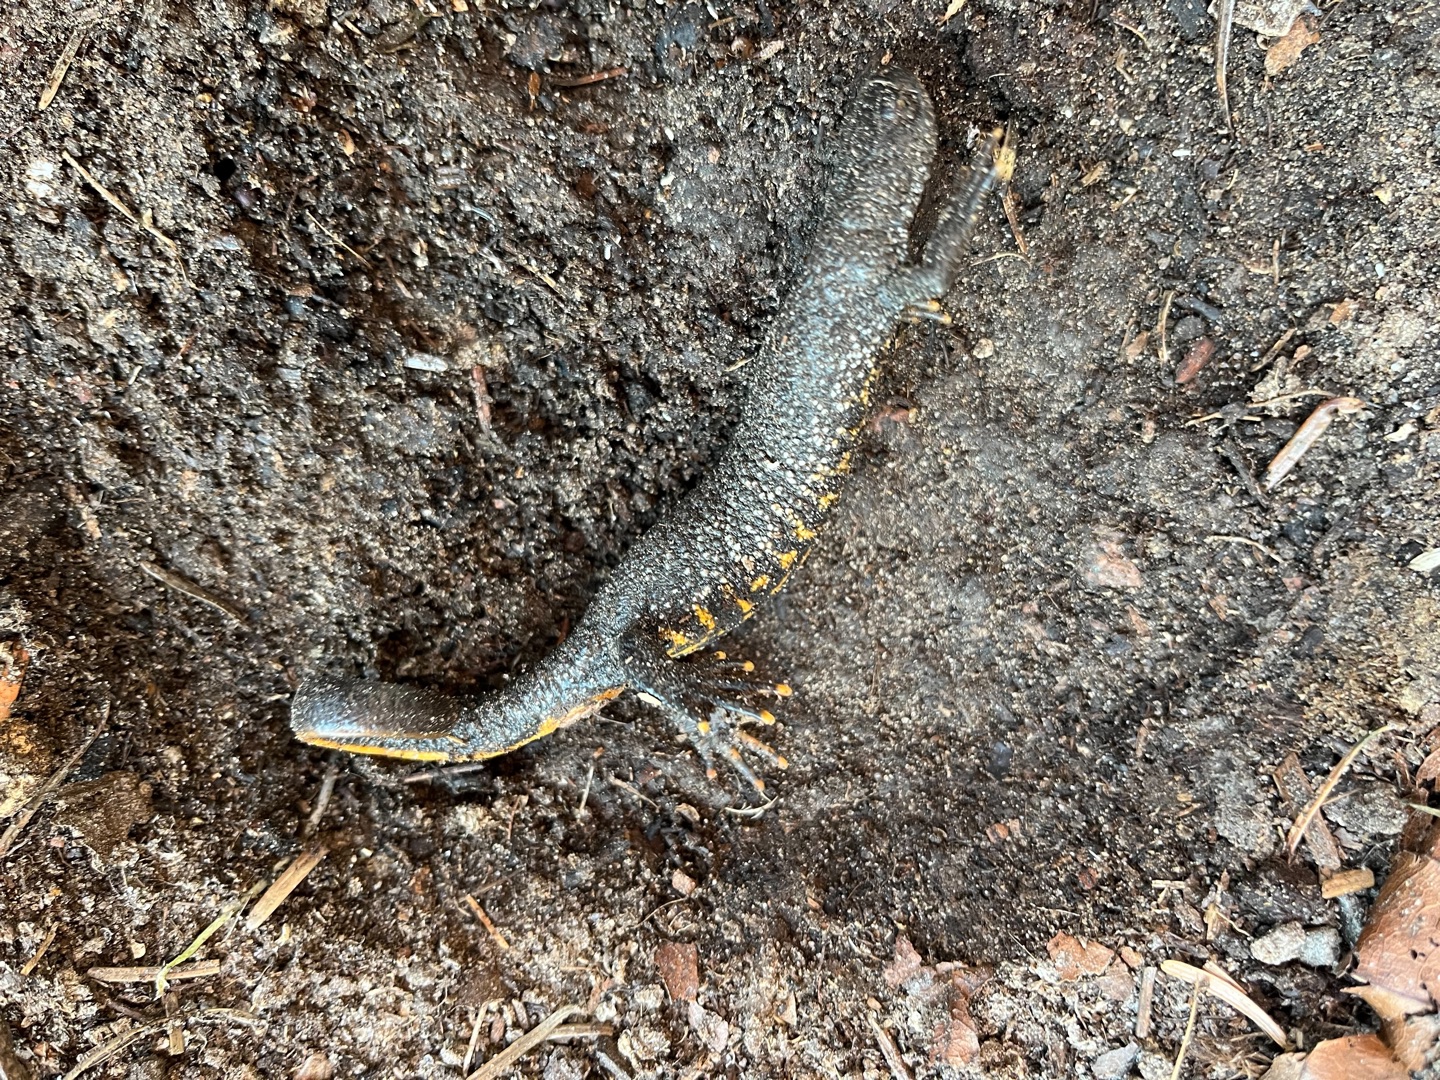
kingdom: Animalia
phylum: Chordata
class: Amphibia
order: Caudata
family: Salamandridae
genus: Triturus
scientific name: Triturus cristatus
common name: Stor vandsalamander
